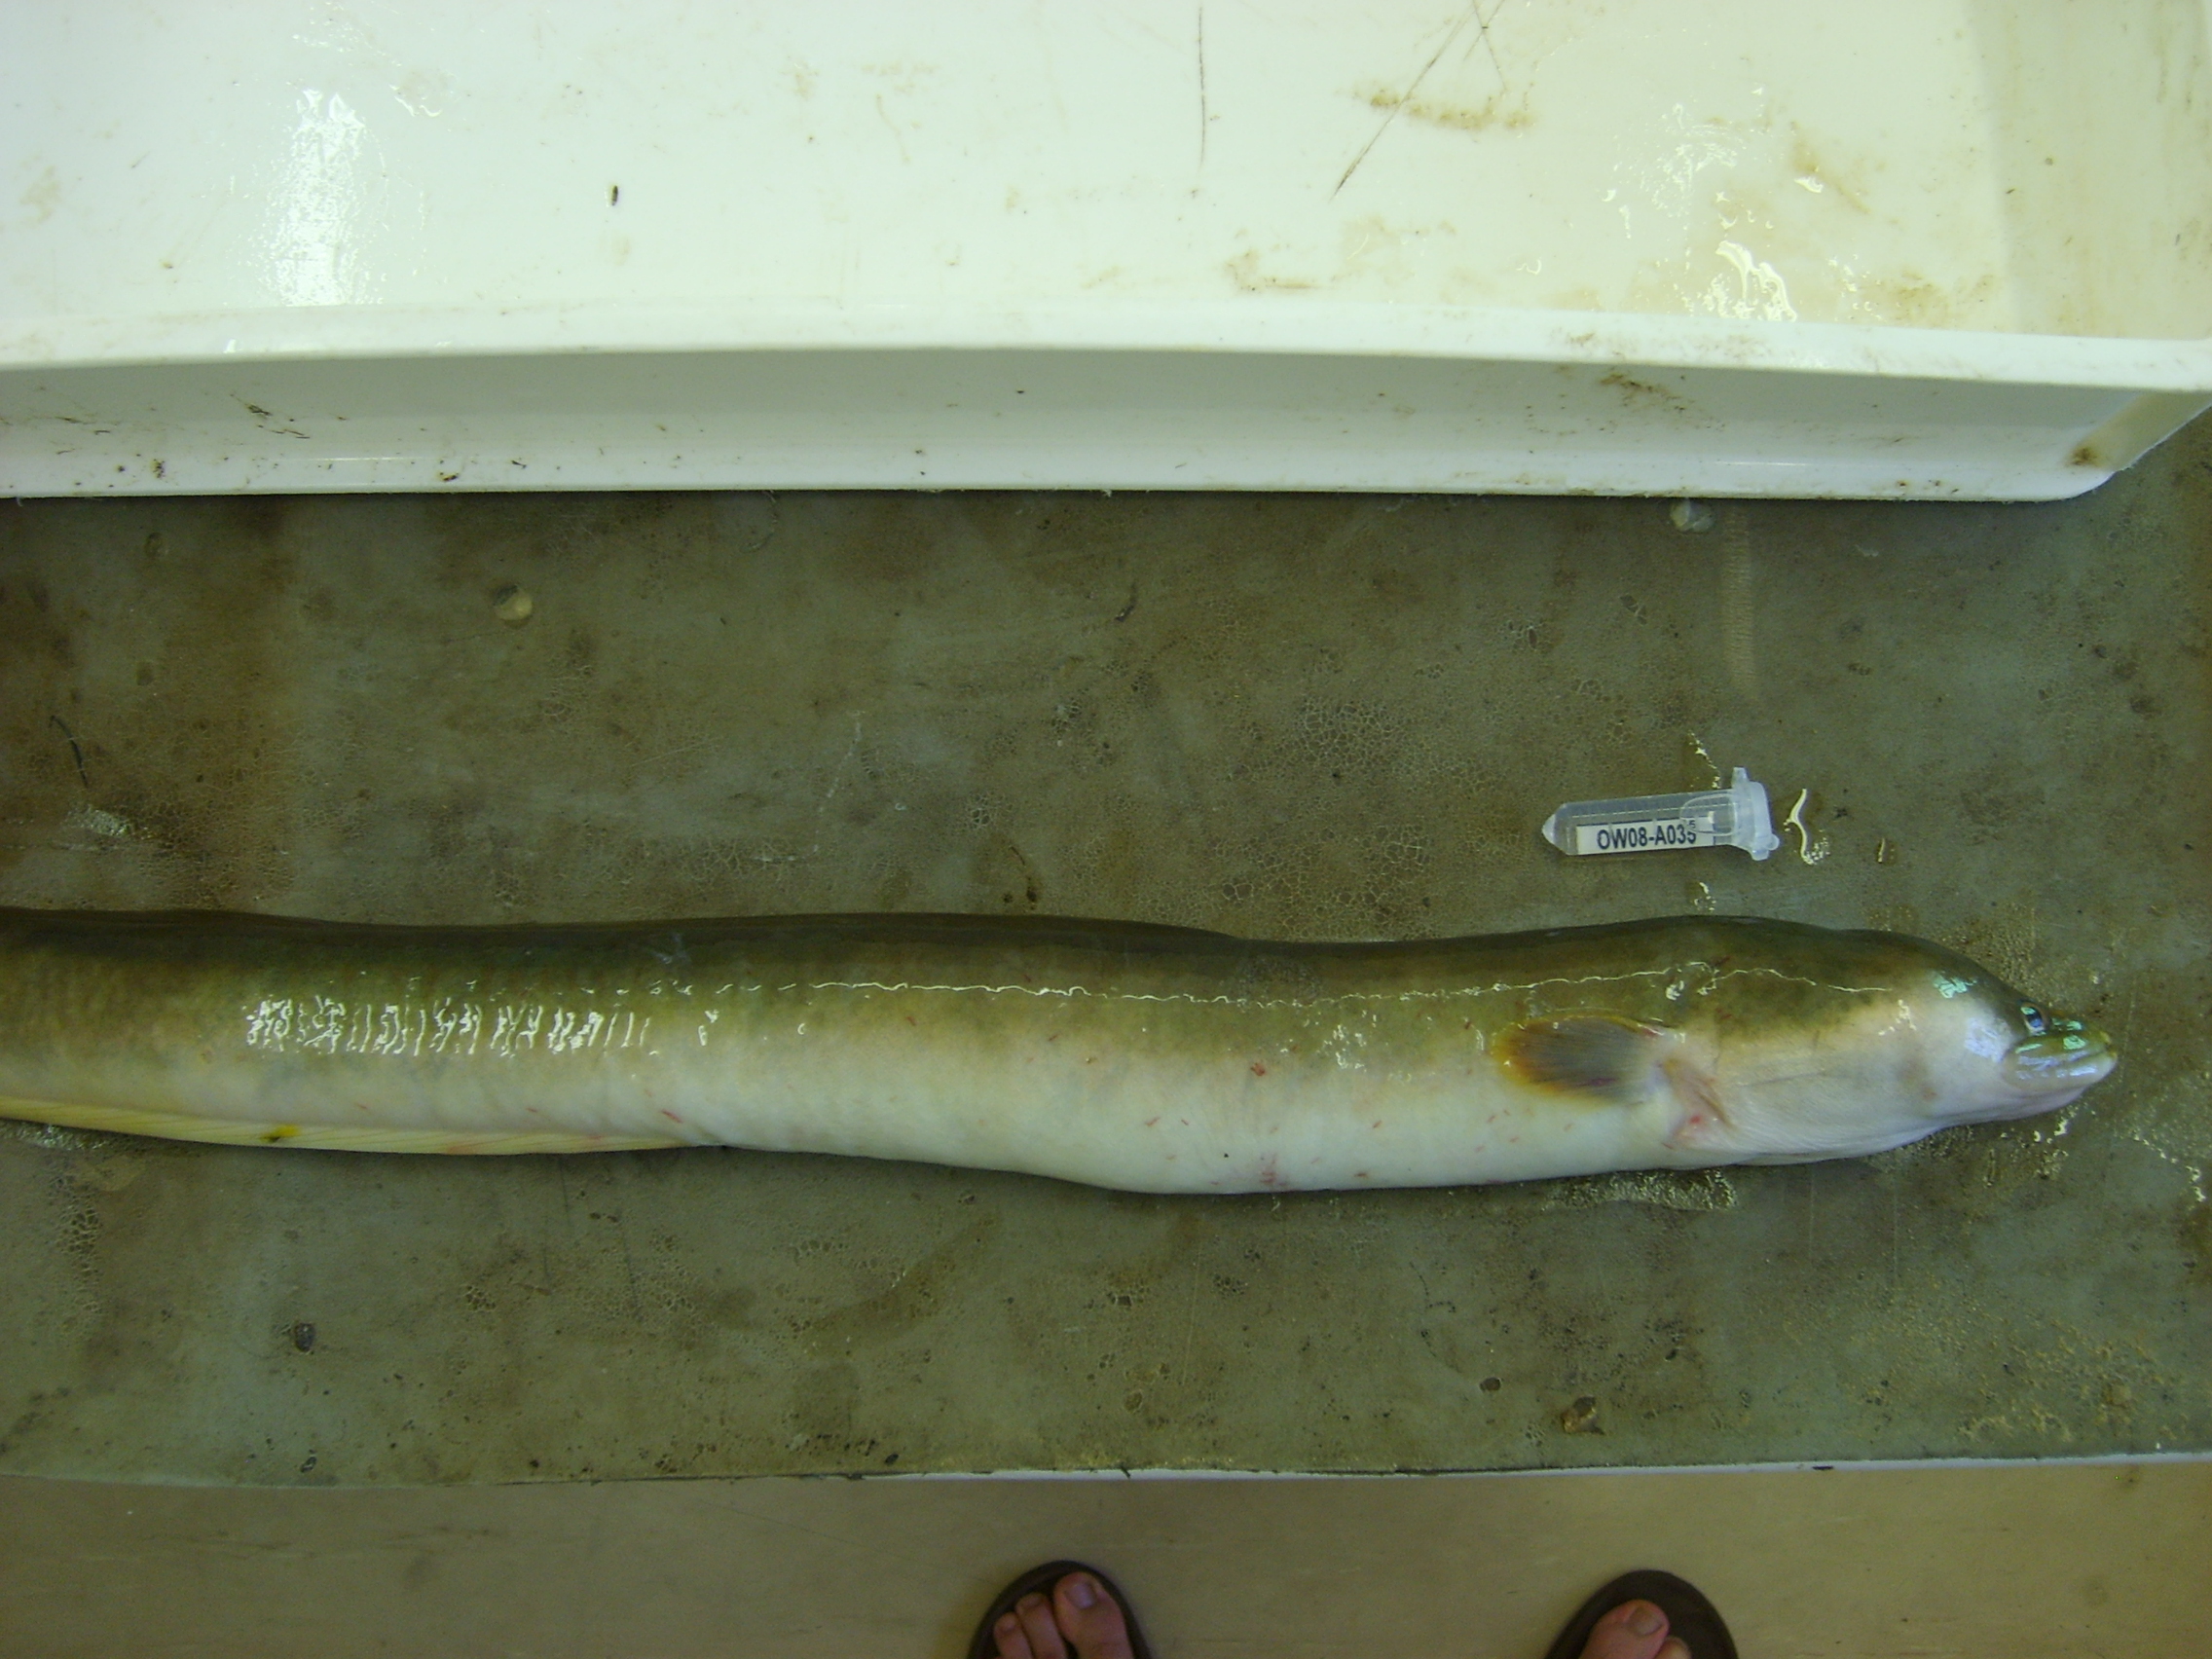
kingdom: Animalia
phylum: Chordata
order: Anguilliformes
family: Anguillidae
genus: Anguilla
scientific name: Anguilla mossambica
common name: African longfin eel
